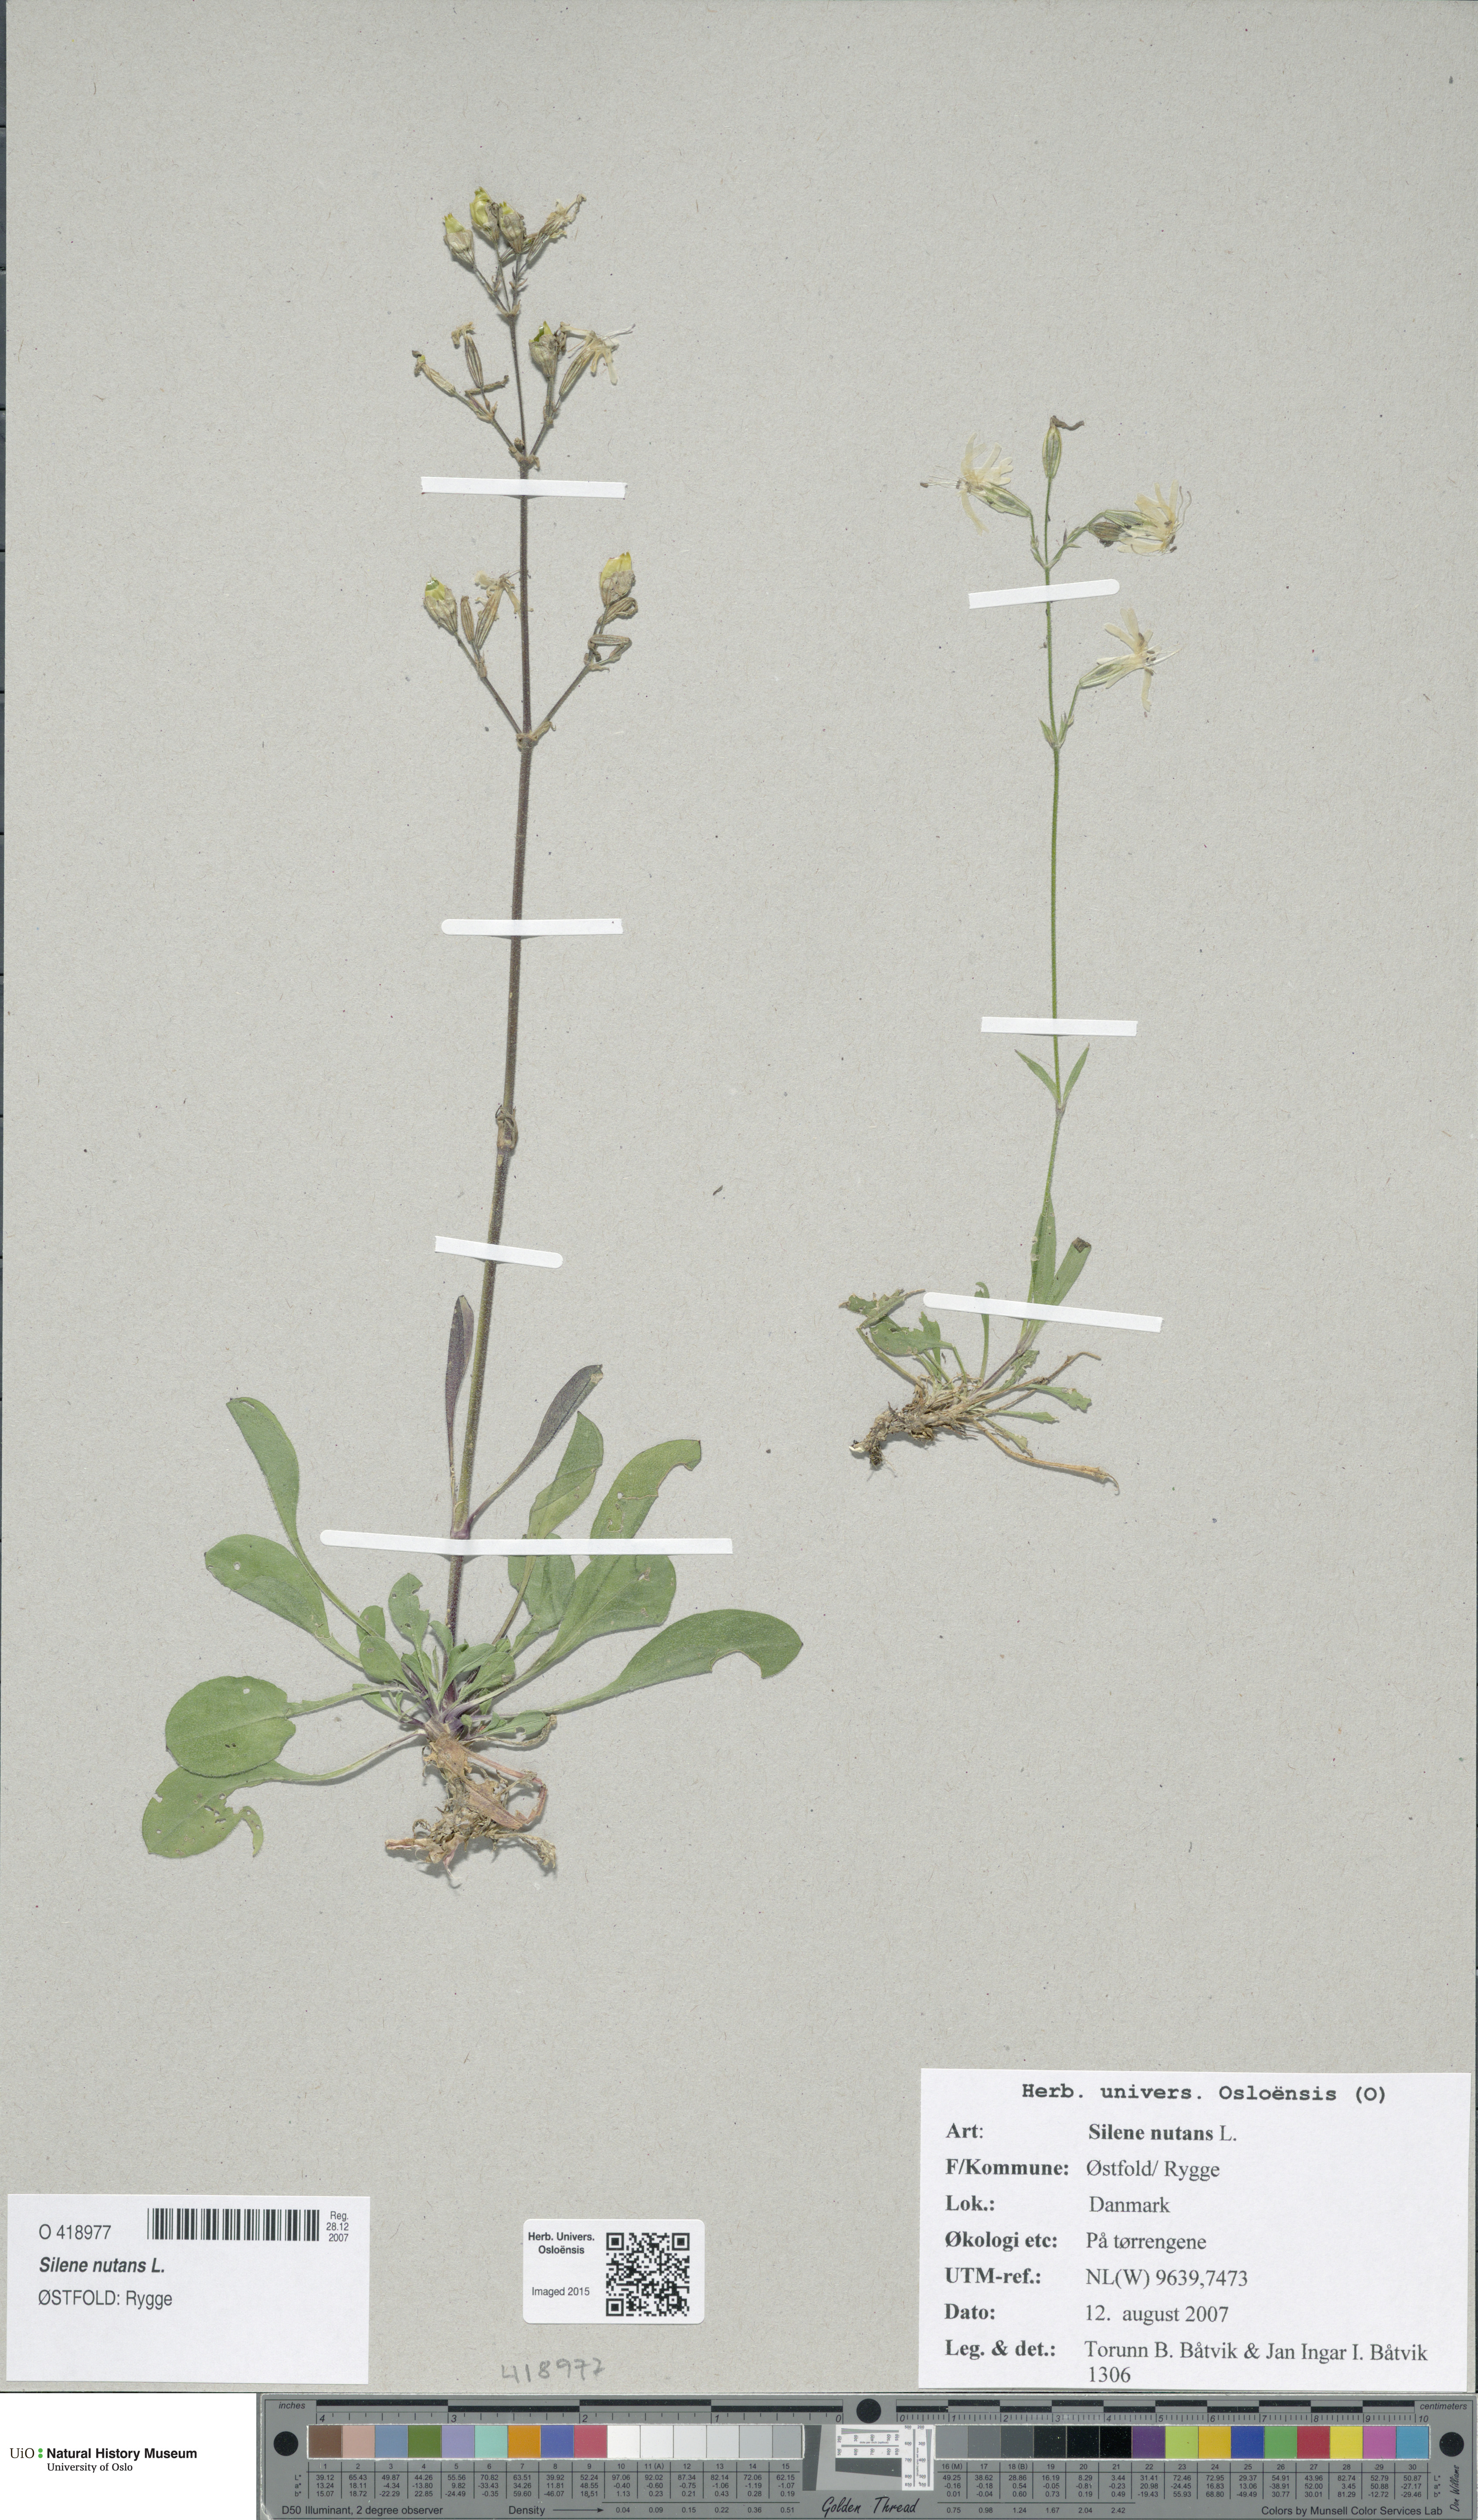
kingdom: Plantae
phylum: Tracheophyta
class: Magnoliopsida
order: Caryophyllales
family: Caryophyllaceae
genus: Silene
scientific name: Silene nutans
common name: Nottingham catchfly
